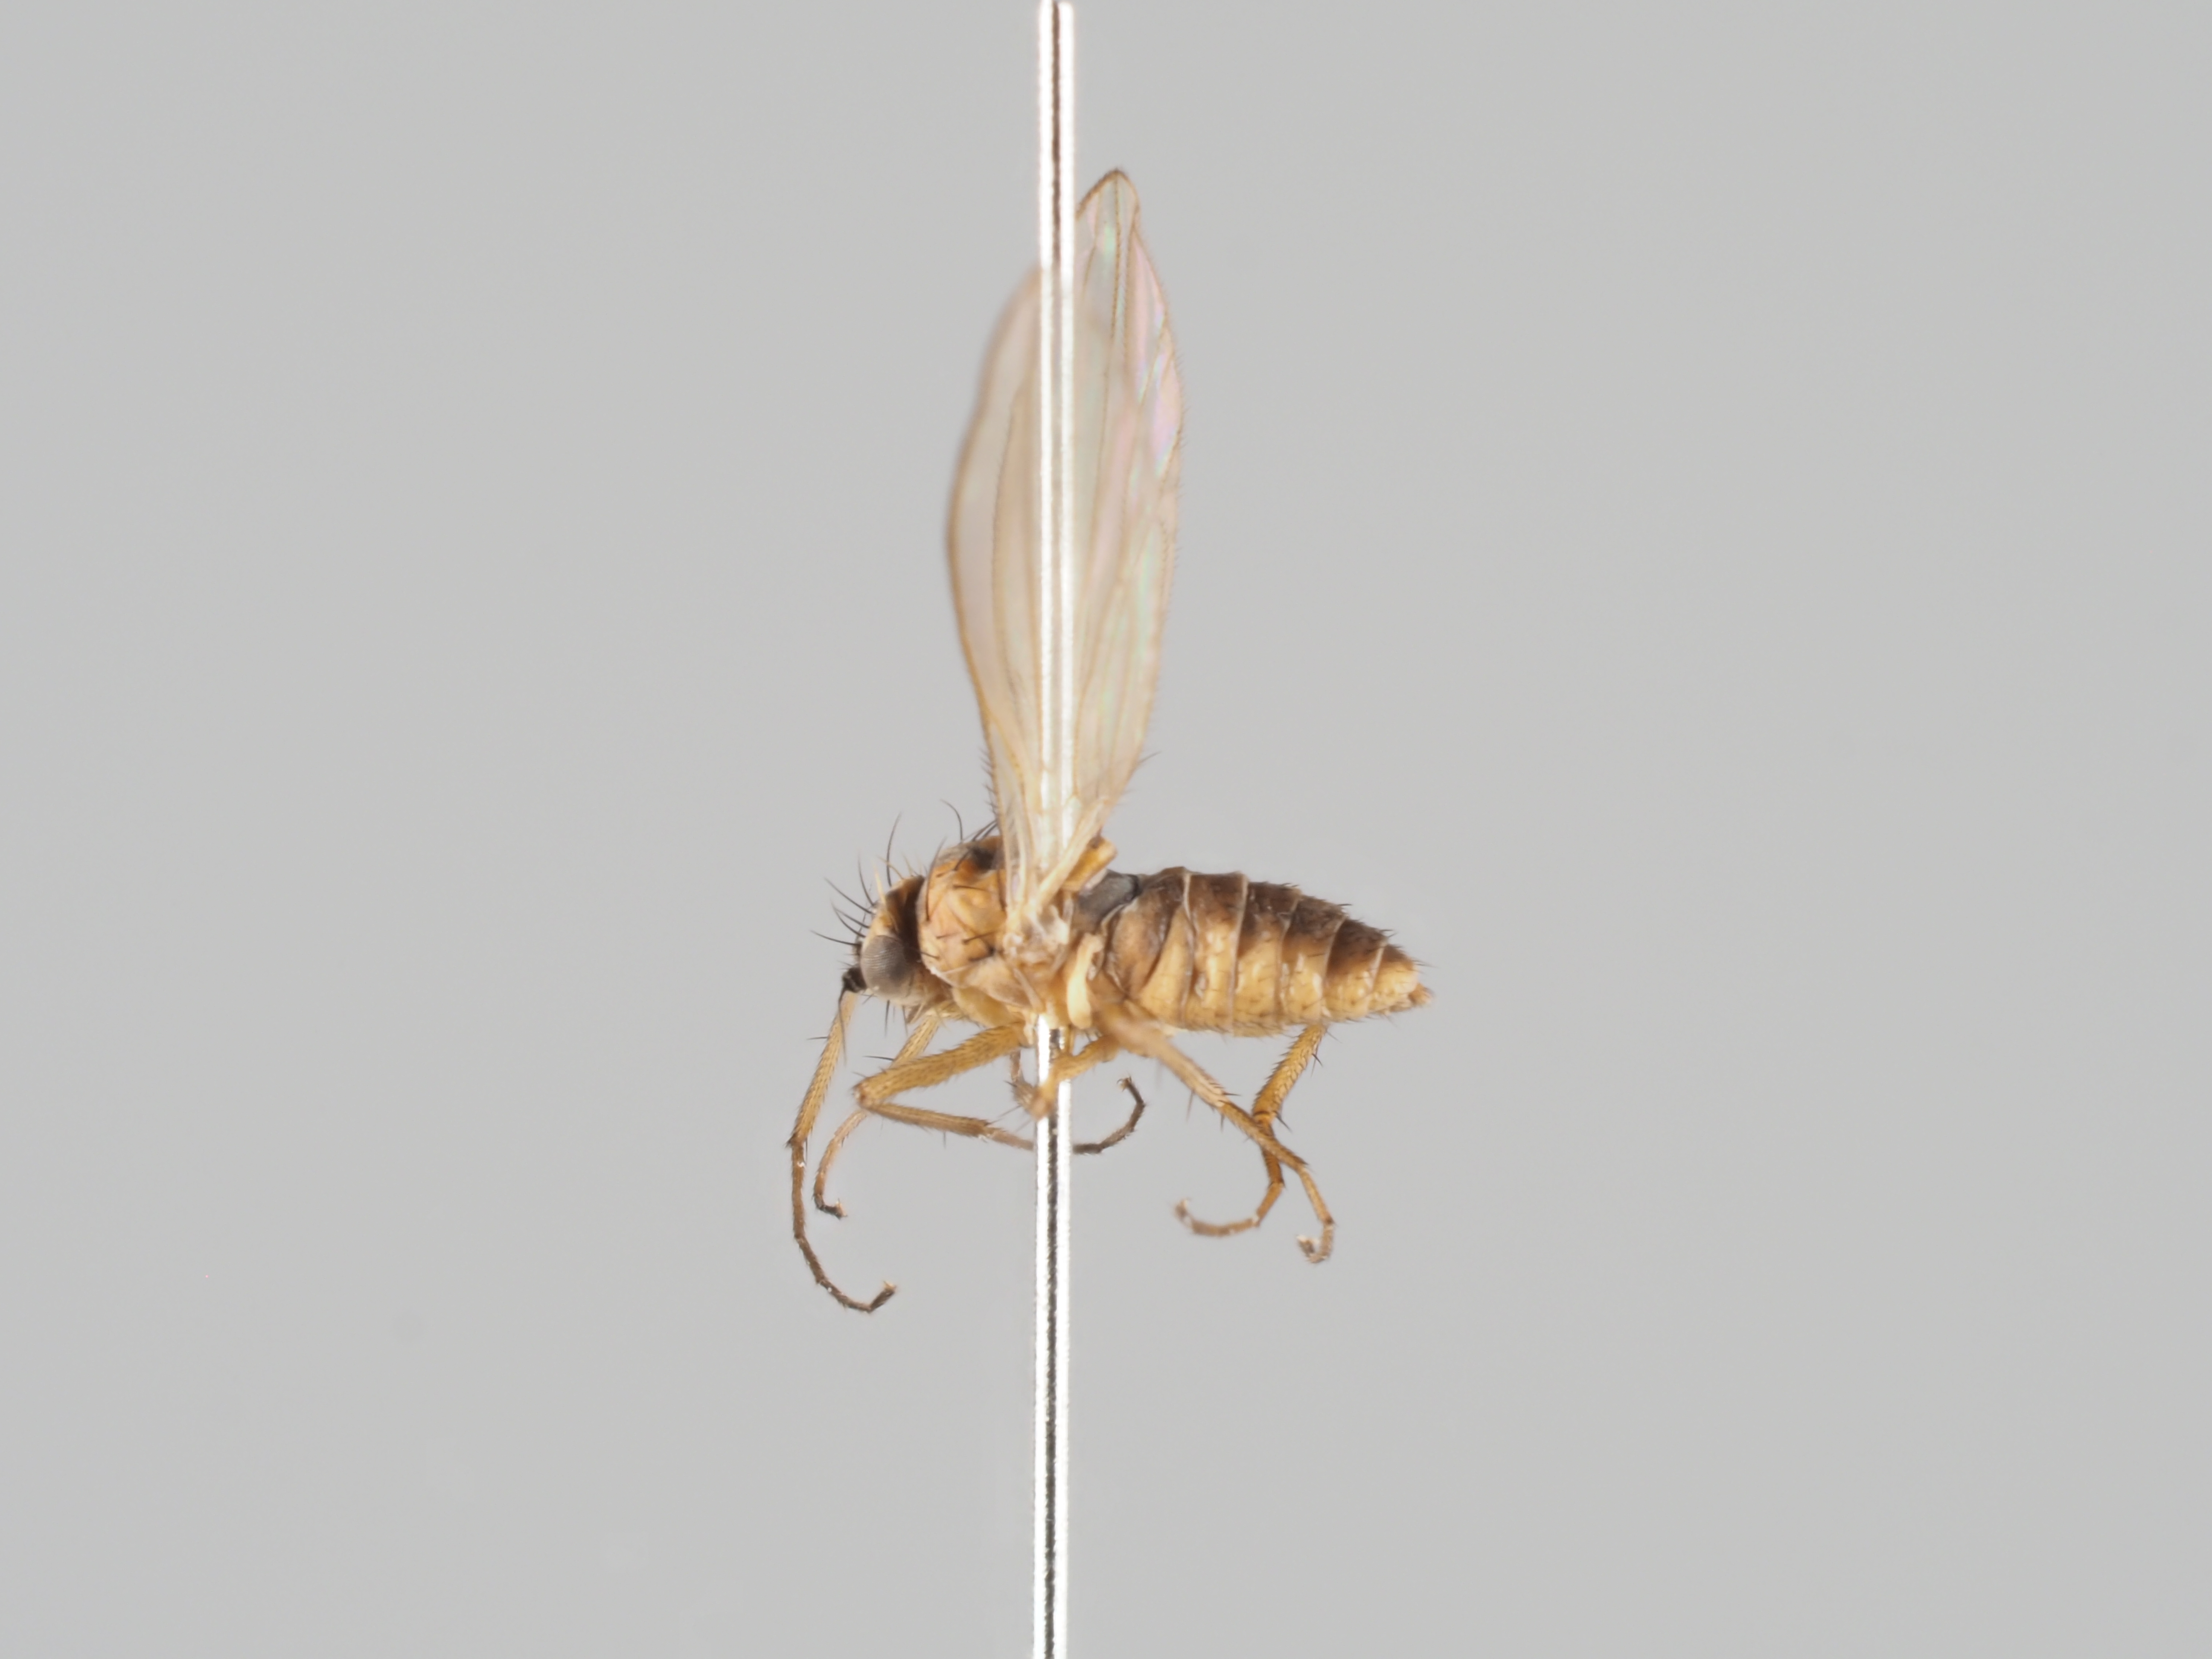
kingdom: Animalia
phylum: Arthropoda
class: Insecta
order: Diptera
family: Lonchopteridae
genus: Lonchoptera
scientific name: Lonchoptera bifurcata
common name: Spear-winged fly
